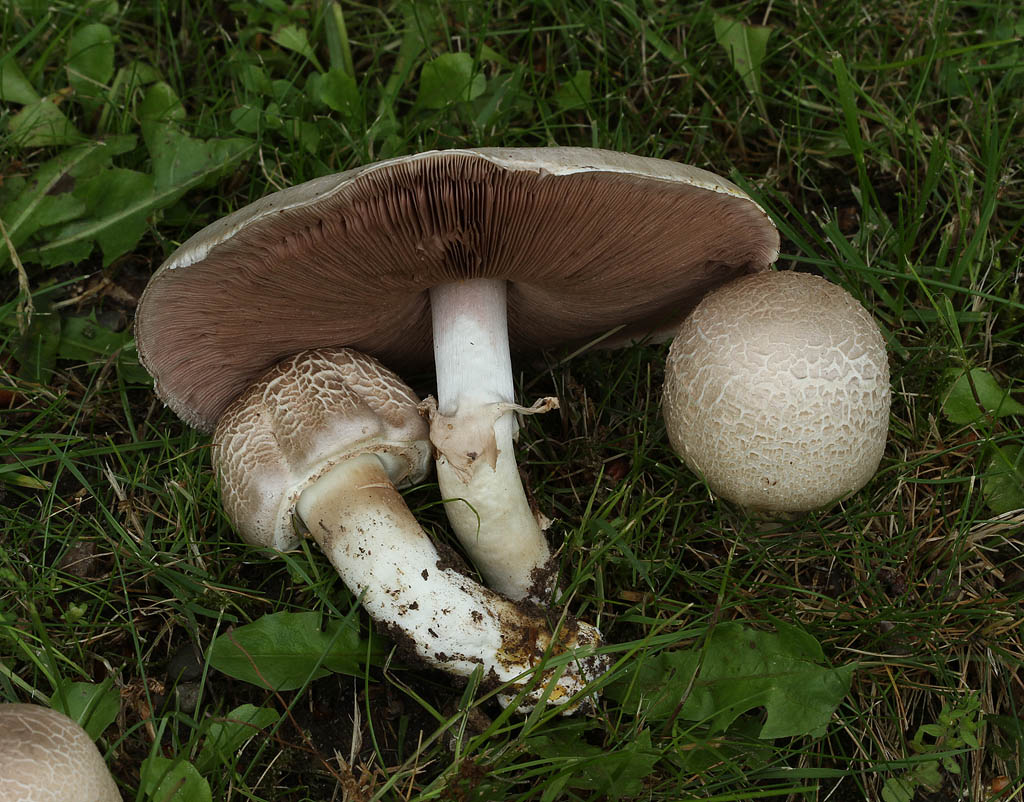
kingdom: Fungi
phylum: Basidiomycota
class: Agaricomycetes
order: Agaricales
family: Agaricaceae
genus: Agaricus
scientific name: Agaricus xanthodermus
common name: karbol-champignon
